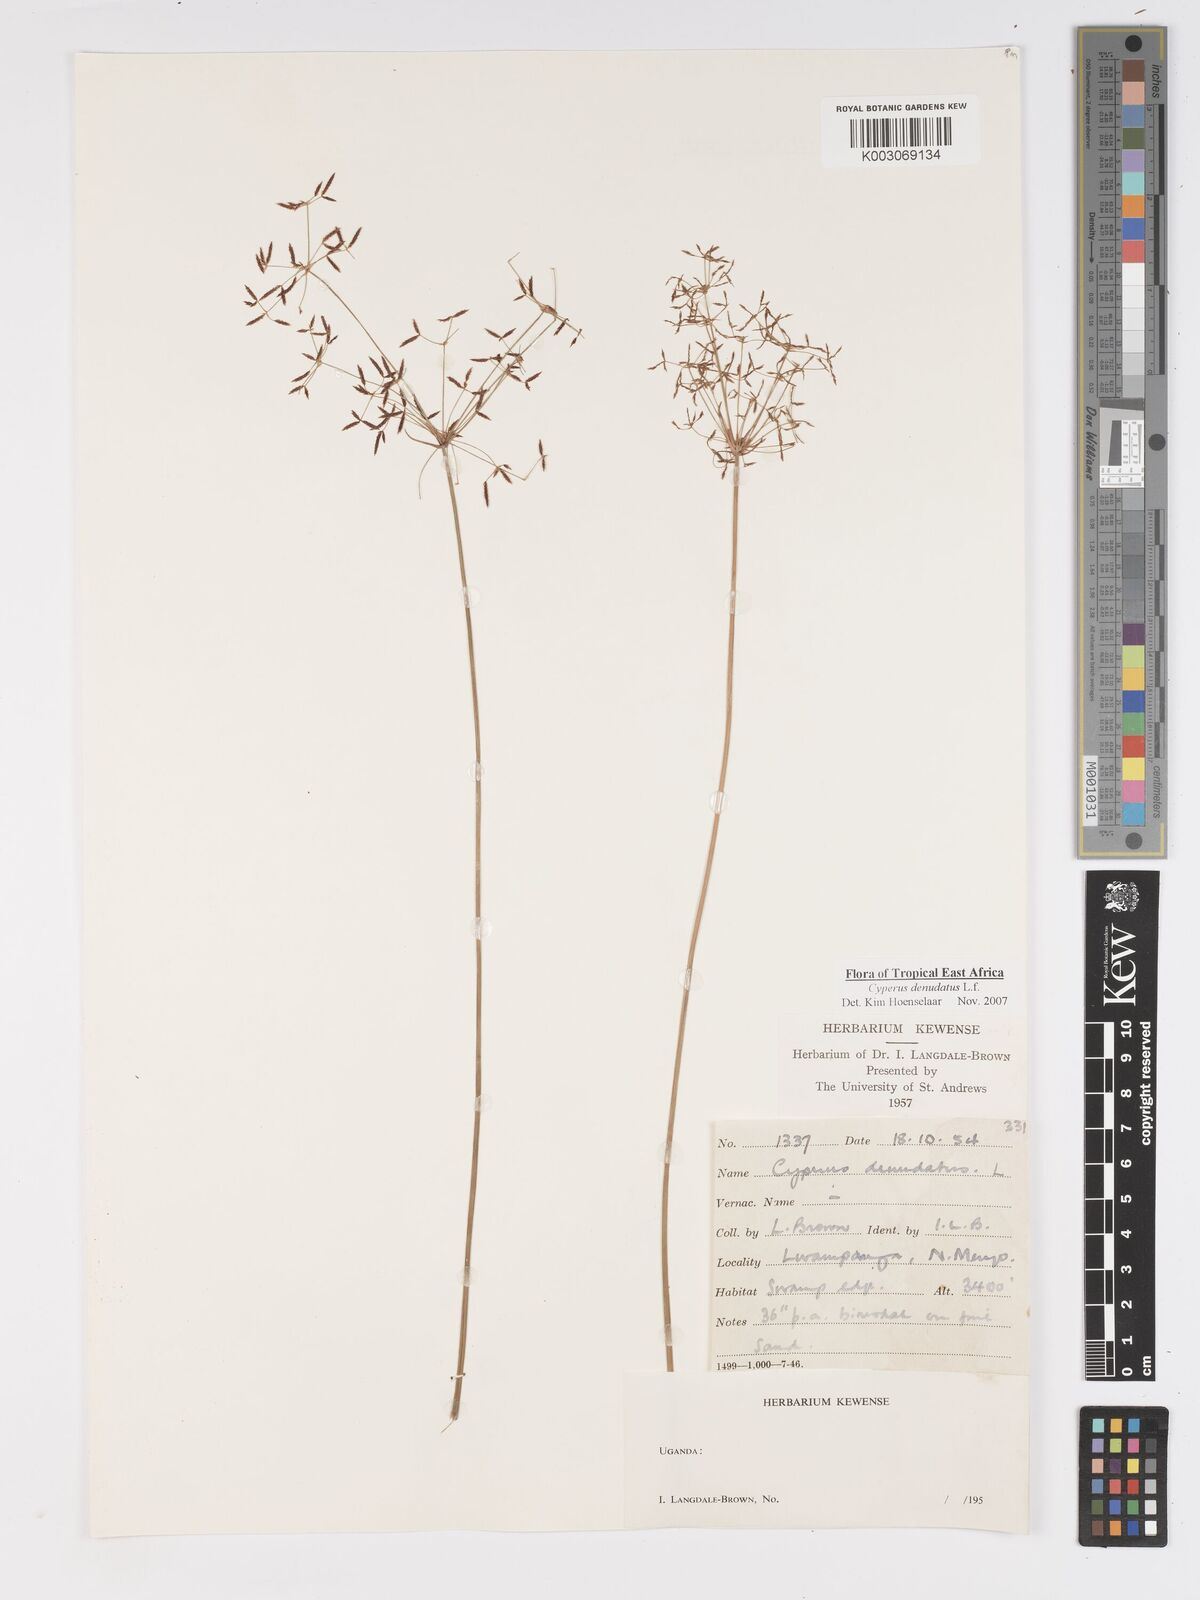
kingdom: Plantae
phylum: Tracheophyta
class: Liliopsida
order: Poales
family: Cyperaceae
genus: Cyperus
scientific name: Cyperus platycaulis
